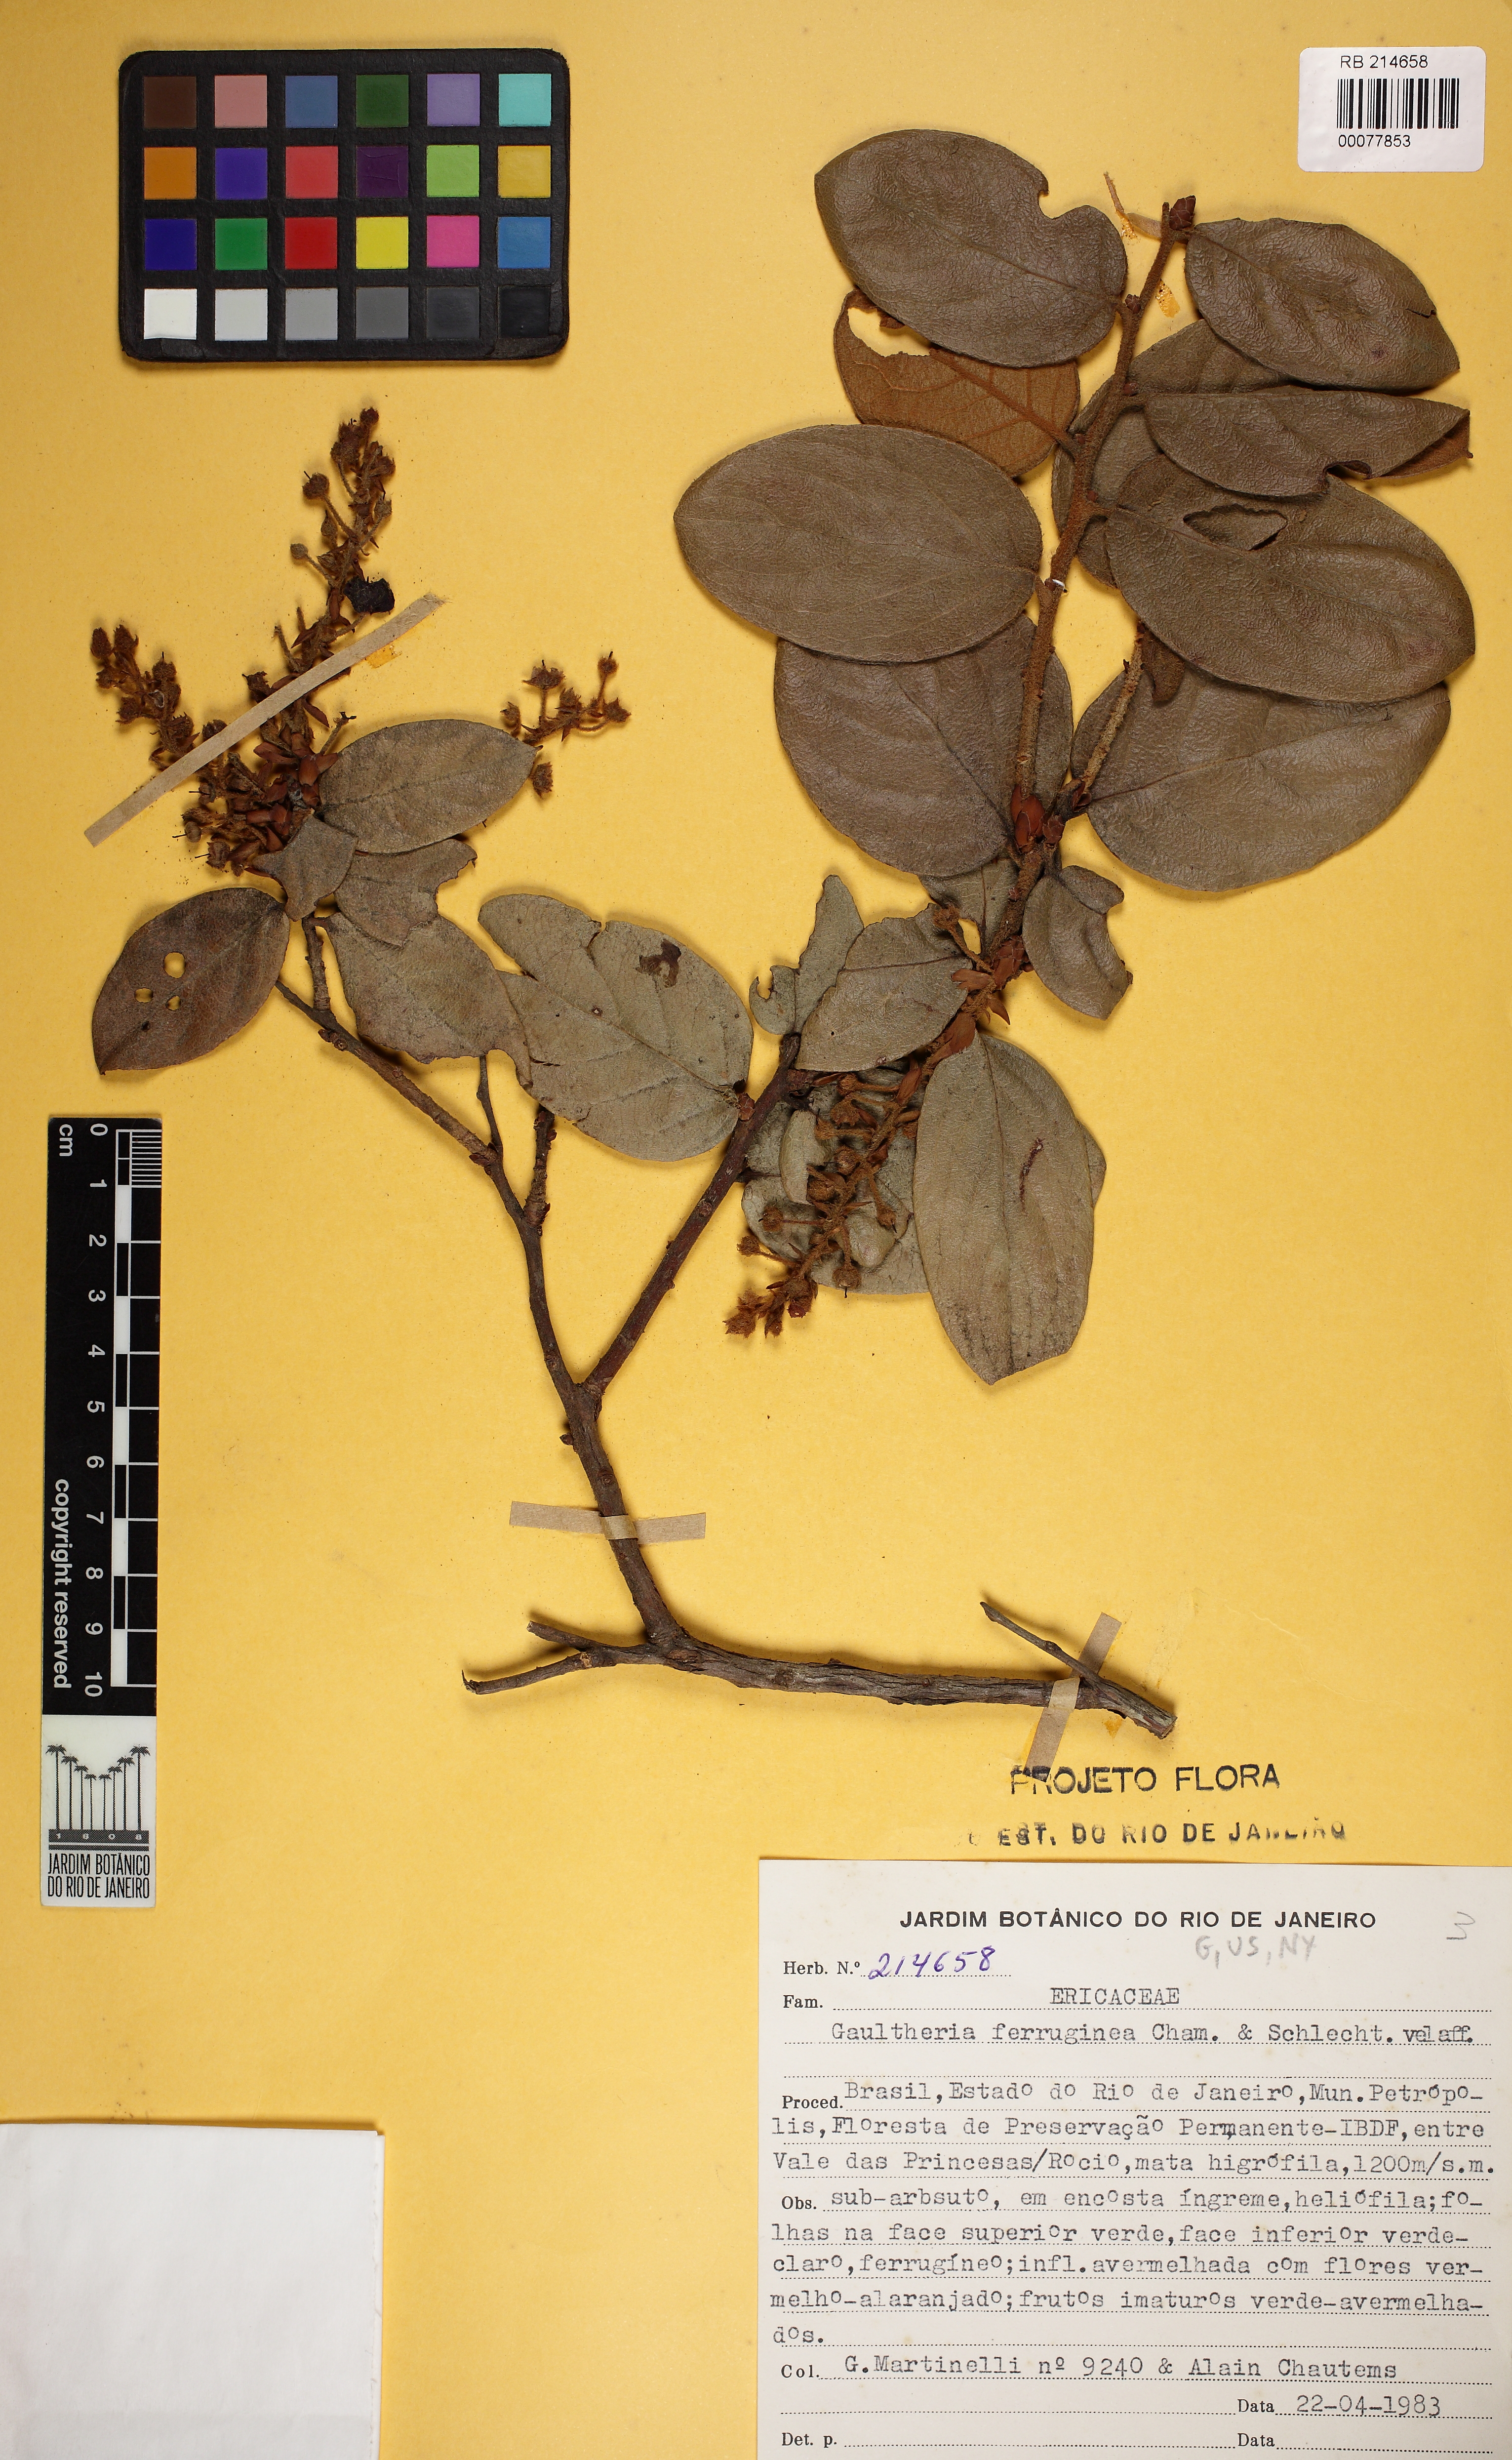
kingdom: Plantae
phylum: Tracheophyta
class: Magnoliopsida
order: Ericales
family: Ericaceae
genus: Gaultheria
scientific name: Gaultheria eriophylla
